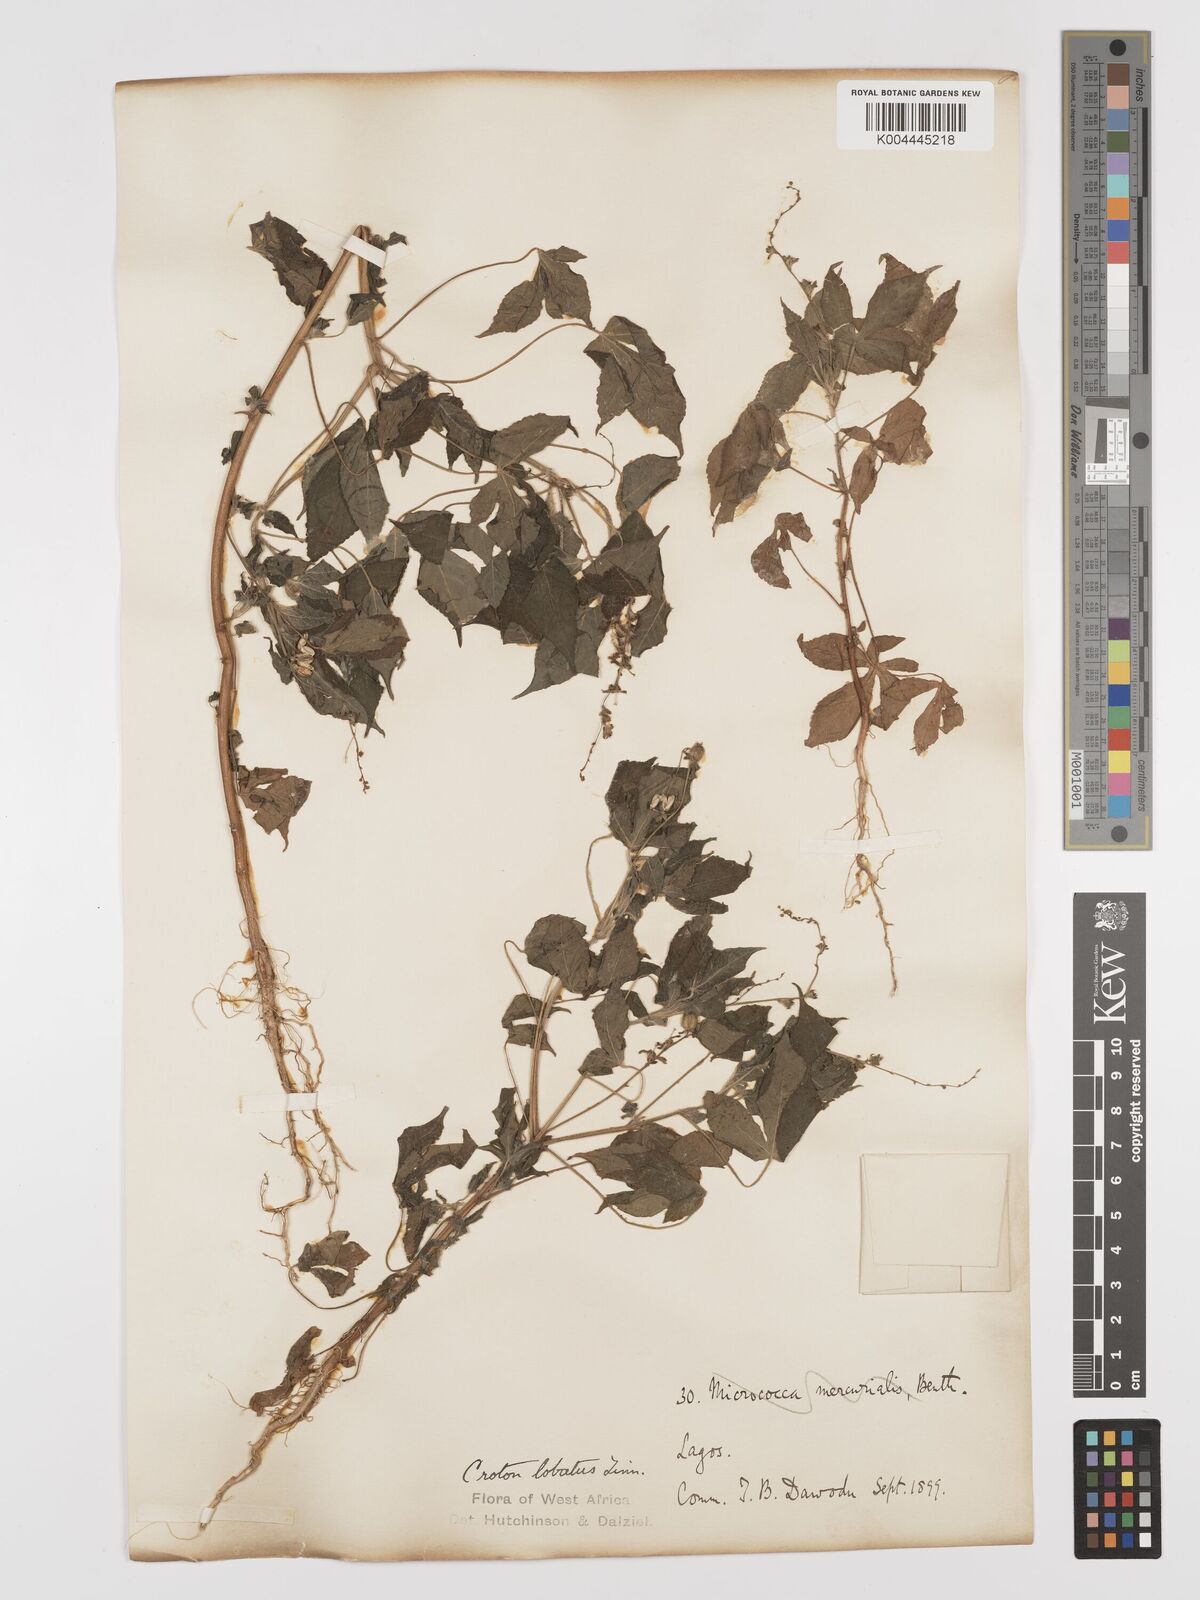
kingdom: Plantae
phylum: Tracheophyta
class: Magnoliopsida
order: Malpighiales
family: Euphorbiaceae
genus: Astraea
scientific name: Astraea lobata
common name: Lobed croton
